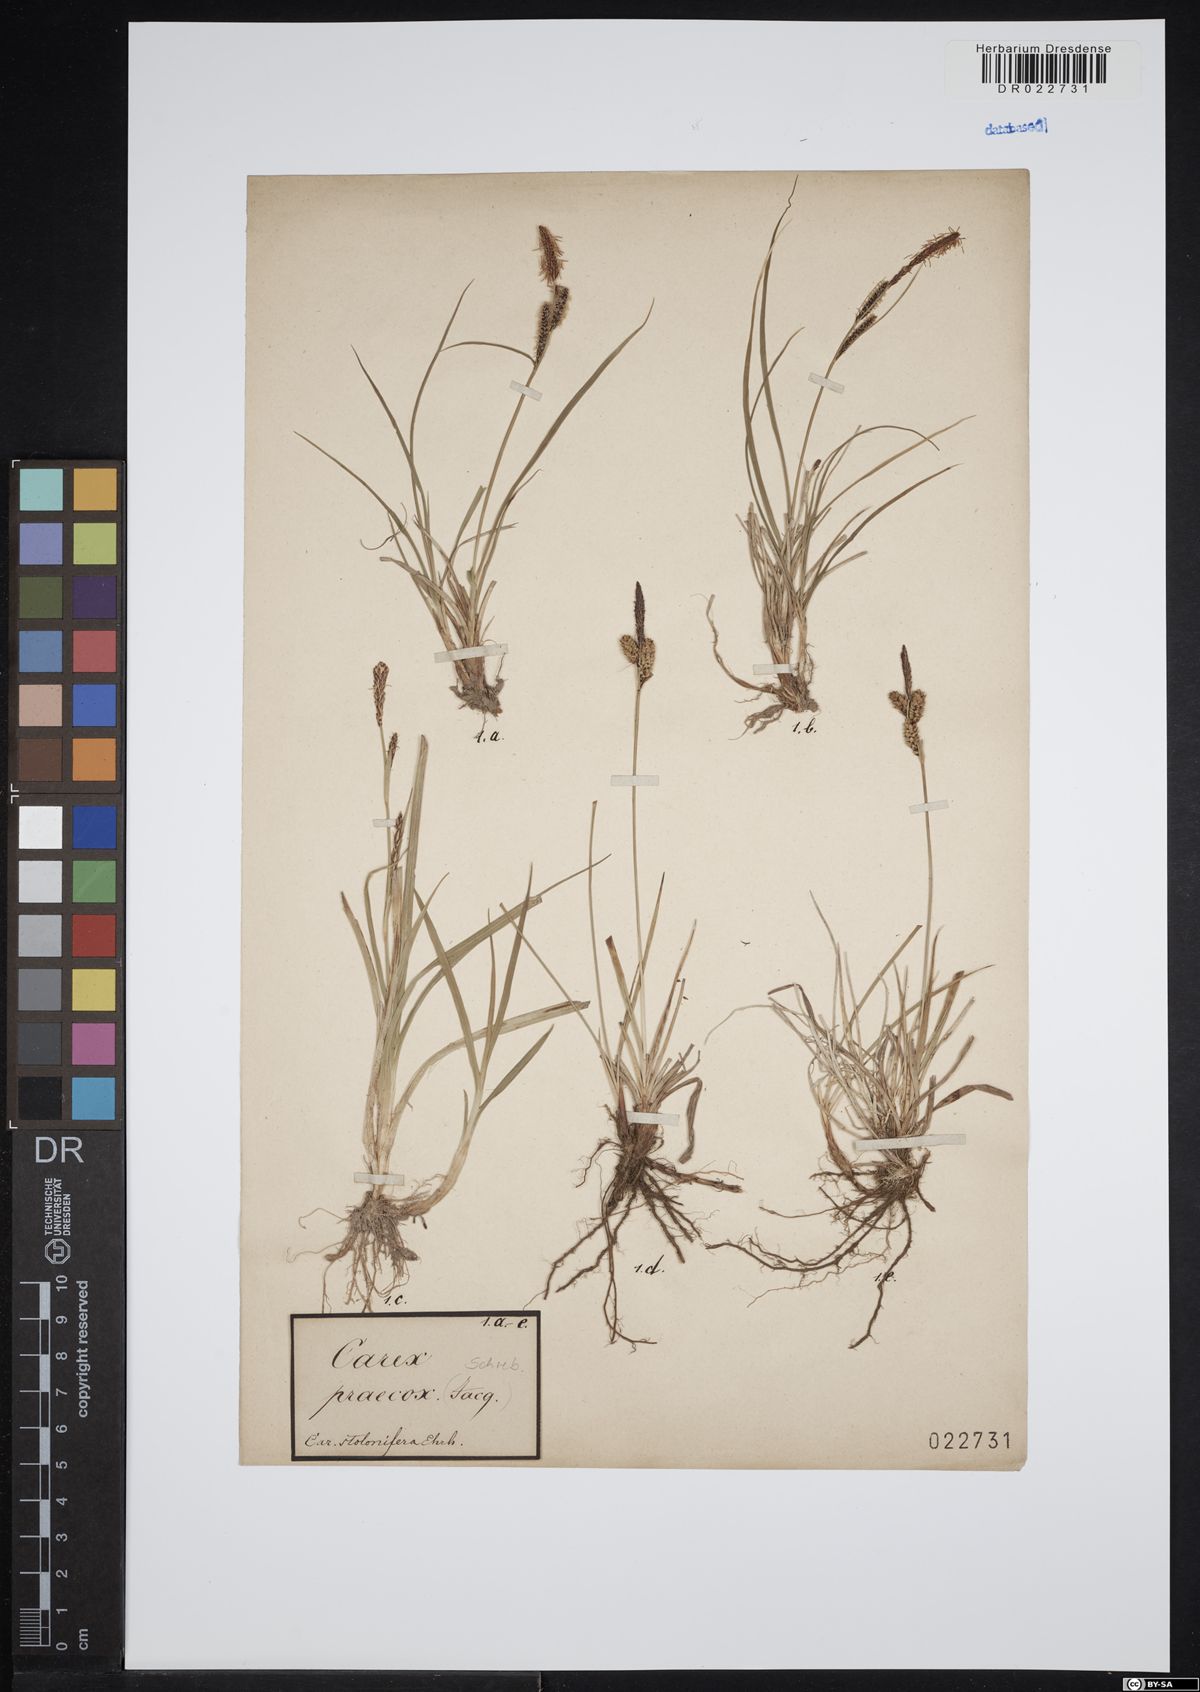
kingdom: Plantae
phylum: Tracheophyta
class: Liliopsida
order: Poales
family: Cyperaceae
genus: Carex
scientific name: Carex praecox
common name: Early sedge
